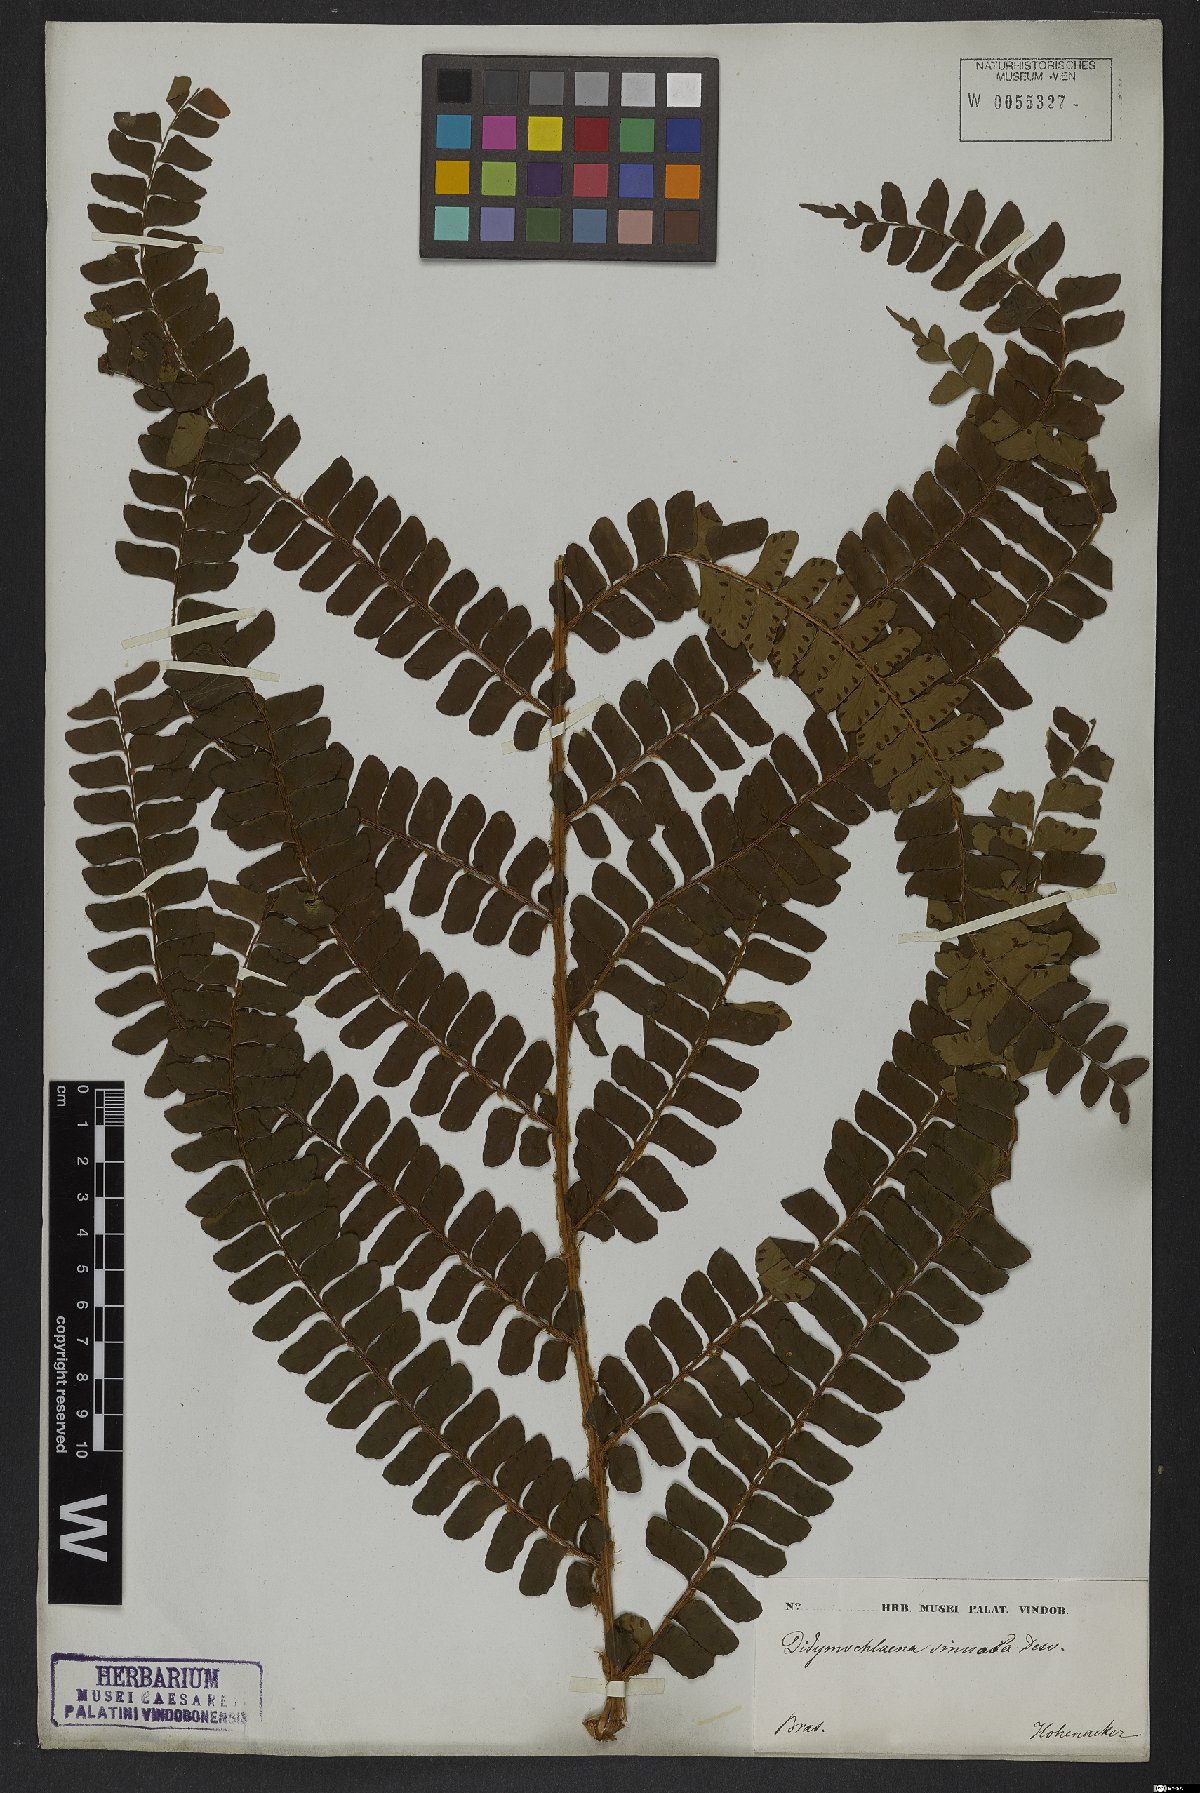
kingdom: Plantae
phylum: Tracheophyta
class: Polypodiopsida
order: Polypodiales
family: Didymochlaenaceae
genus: Didymochlaena
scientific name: Didymochlaena truncatula
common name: Mahogany fern
